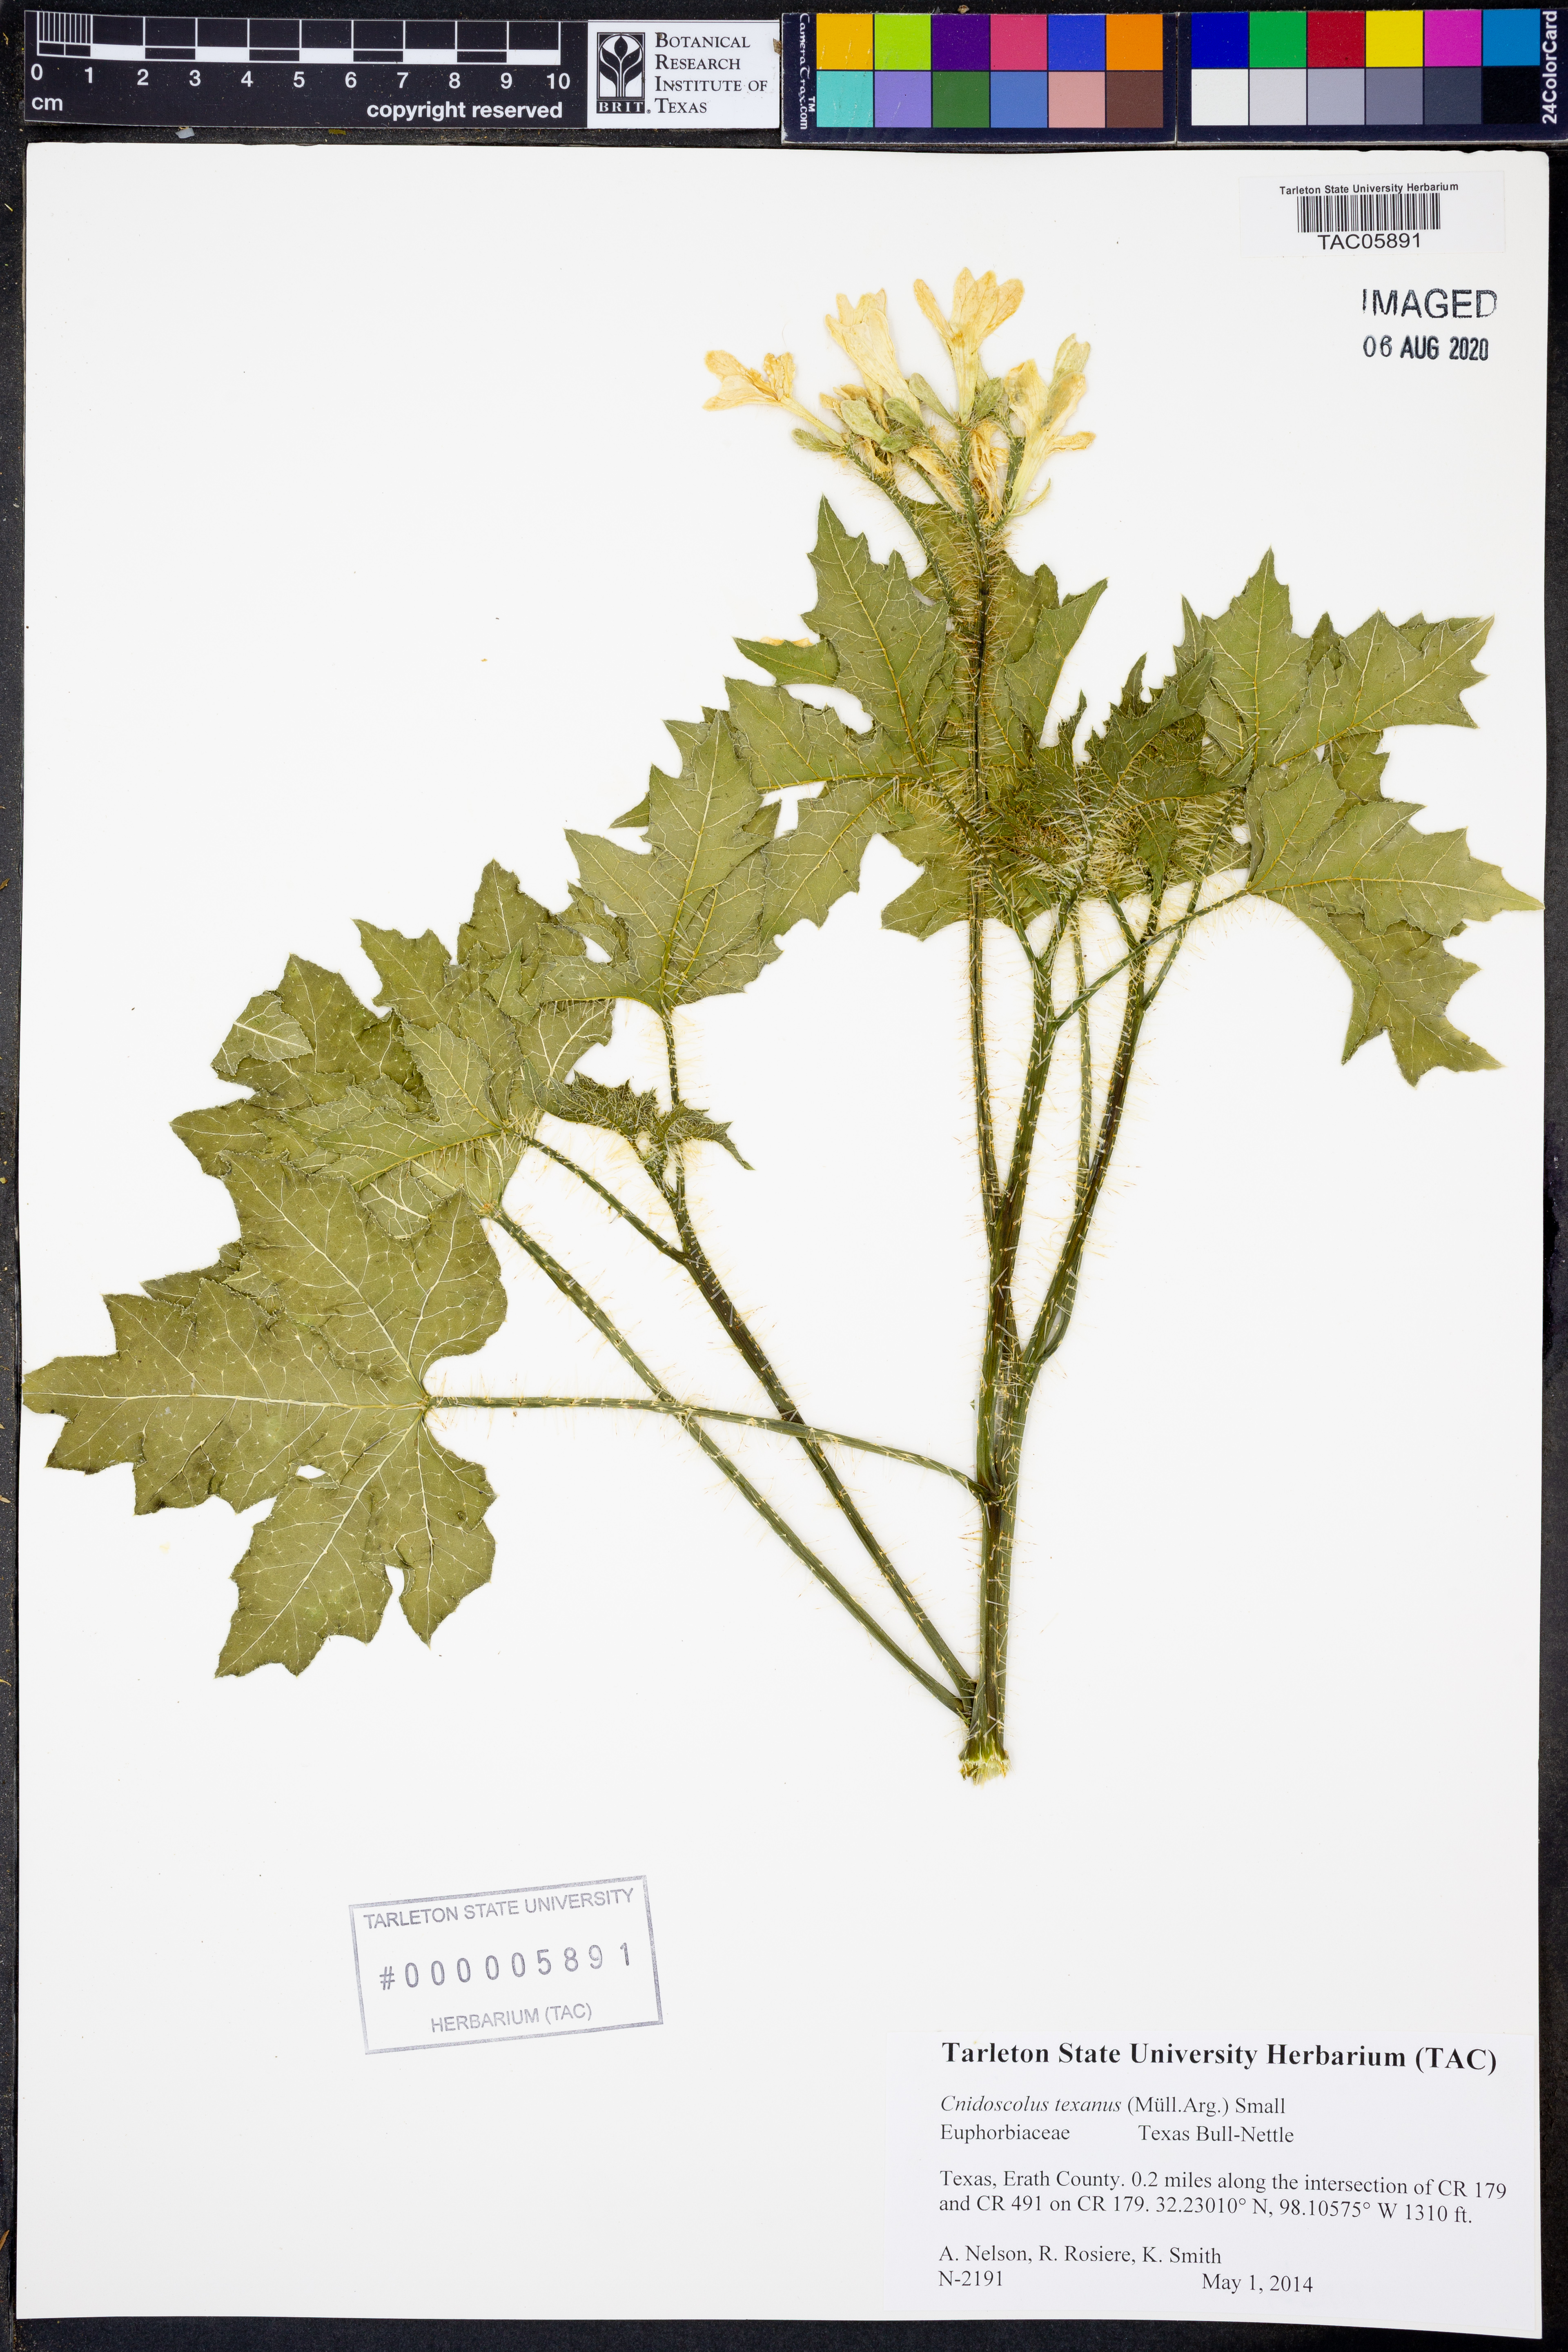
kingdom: Plantae
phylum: Tracheophyta
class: Magnoliopsida
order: Malpighiales
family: Euphorbiaceae
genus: Cnidoscolus
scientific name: Cnidoscolus texanus
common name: Texas bull-nettle
